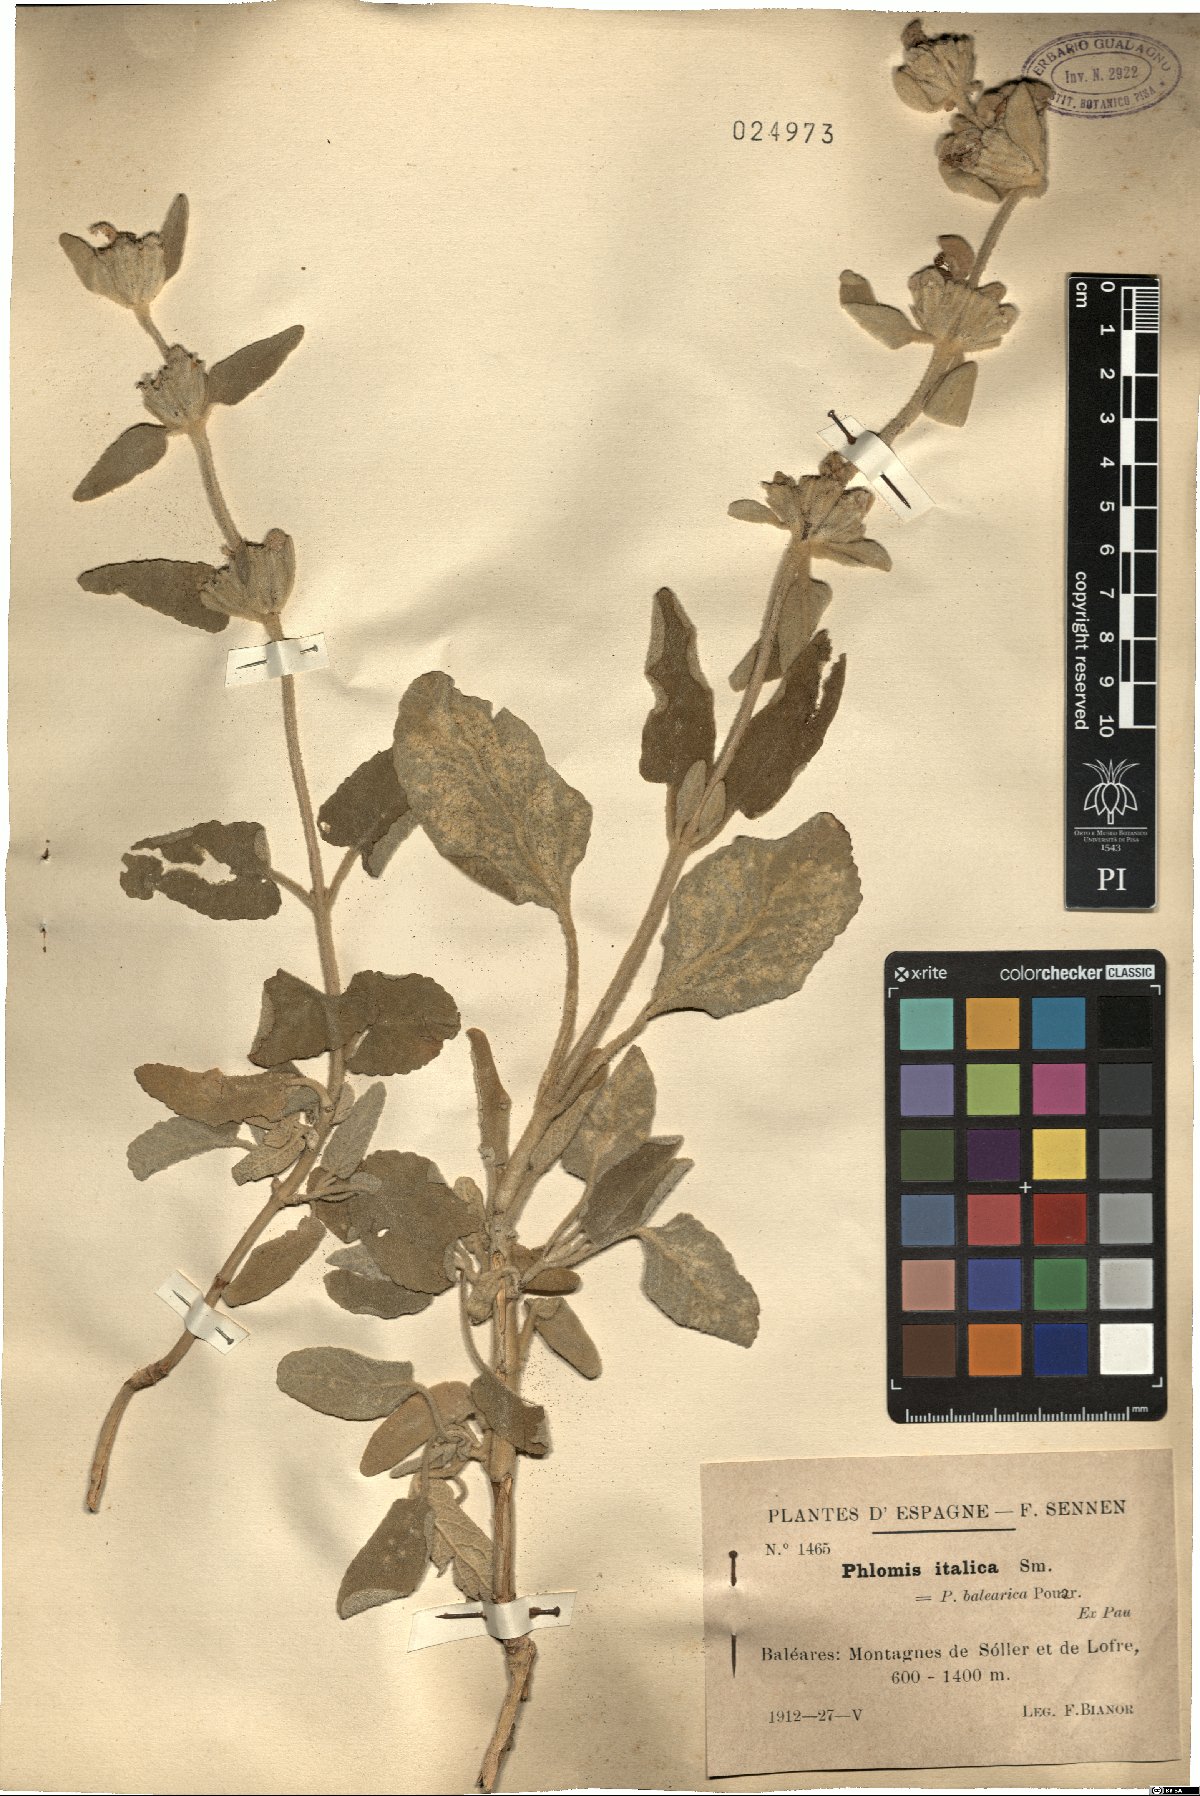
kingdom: Plantae
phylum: Tracheophyta
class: Magnoliopsida
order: Lamiales
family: Lamiaceae
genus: Phlomis
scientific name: Phlomis italica
